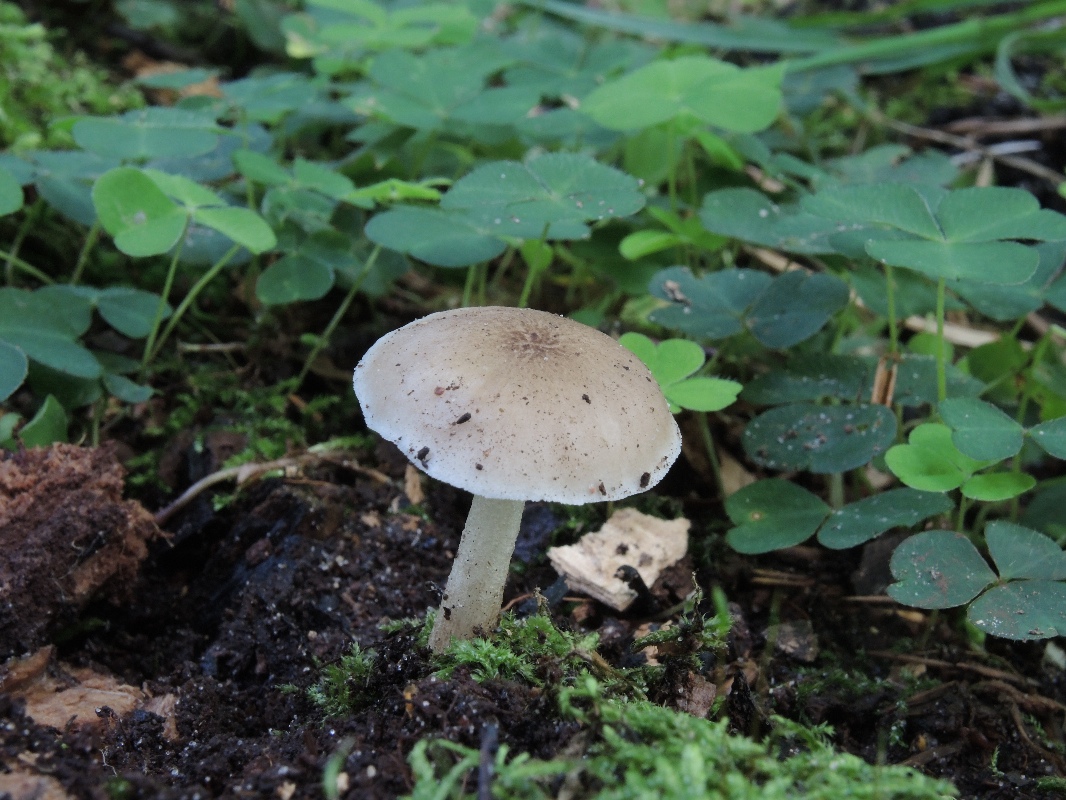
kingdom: Fungi
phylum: Basidiomycota
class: Agaricomycetes
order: Agaricales
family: Pluteaceae
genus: Pluteus
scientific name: Pluteus cervinus
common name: sodfarvet skærmhat
